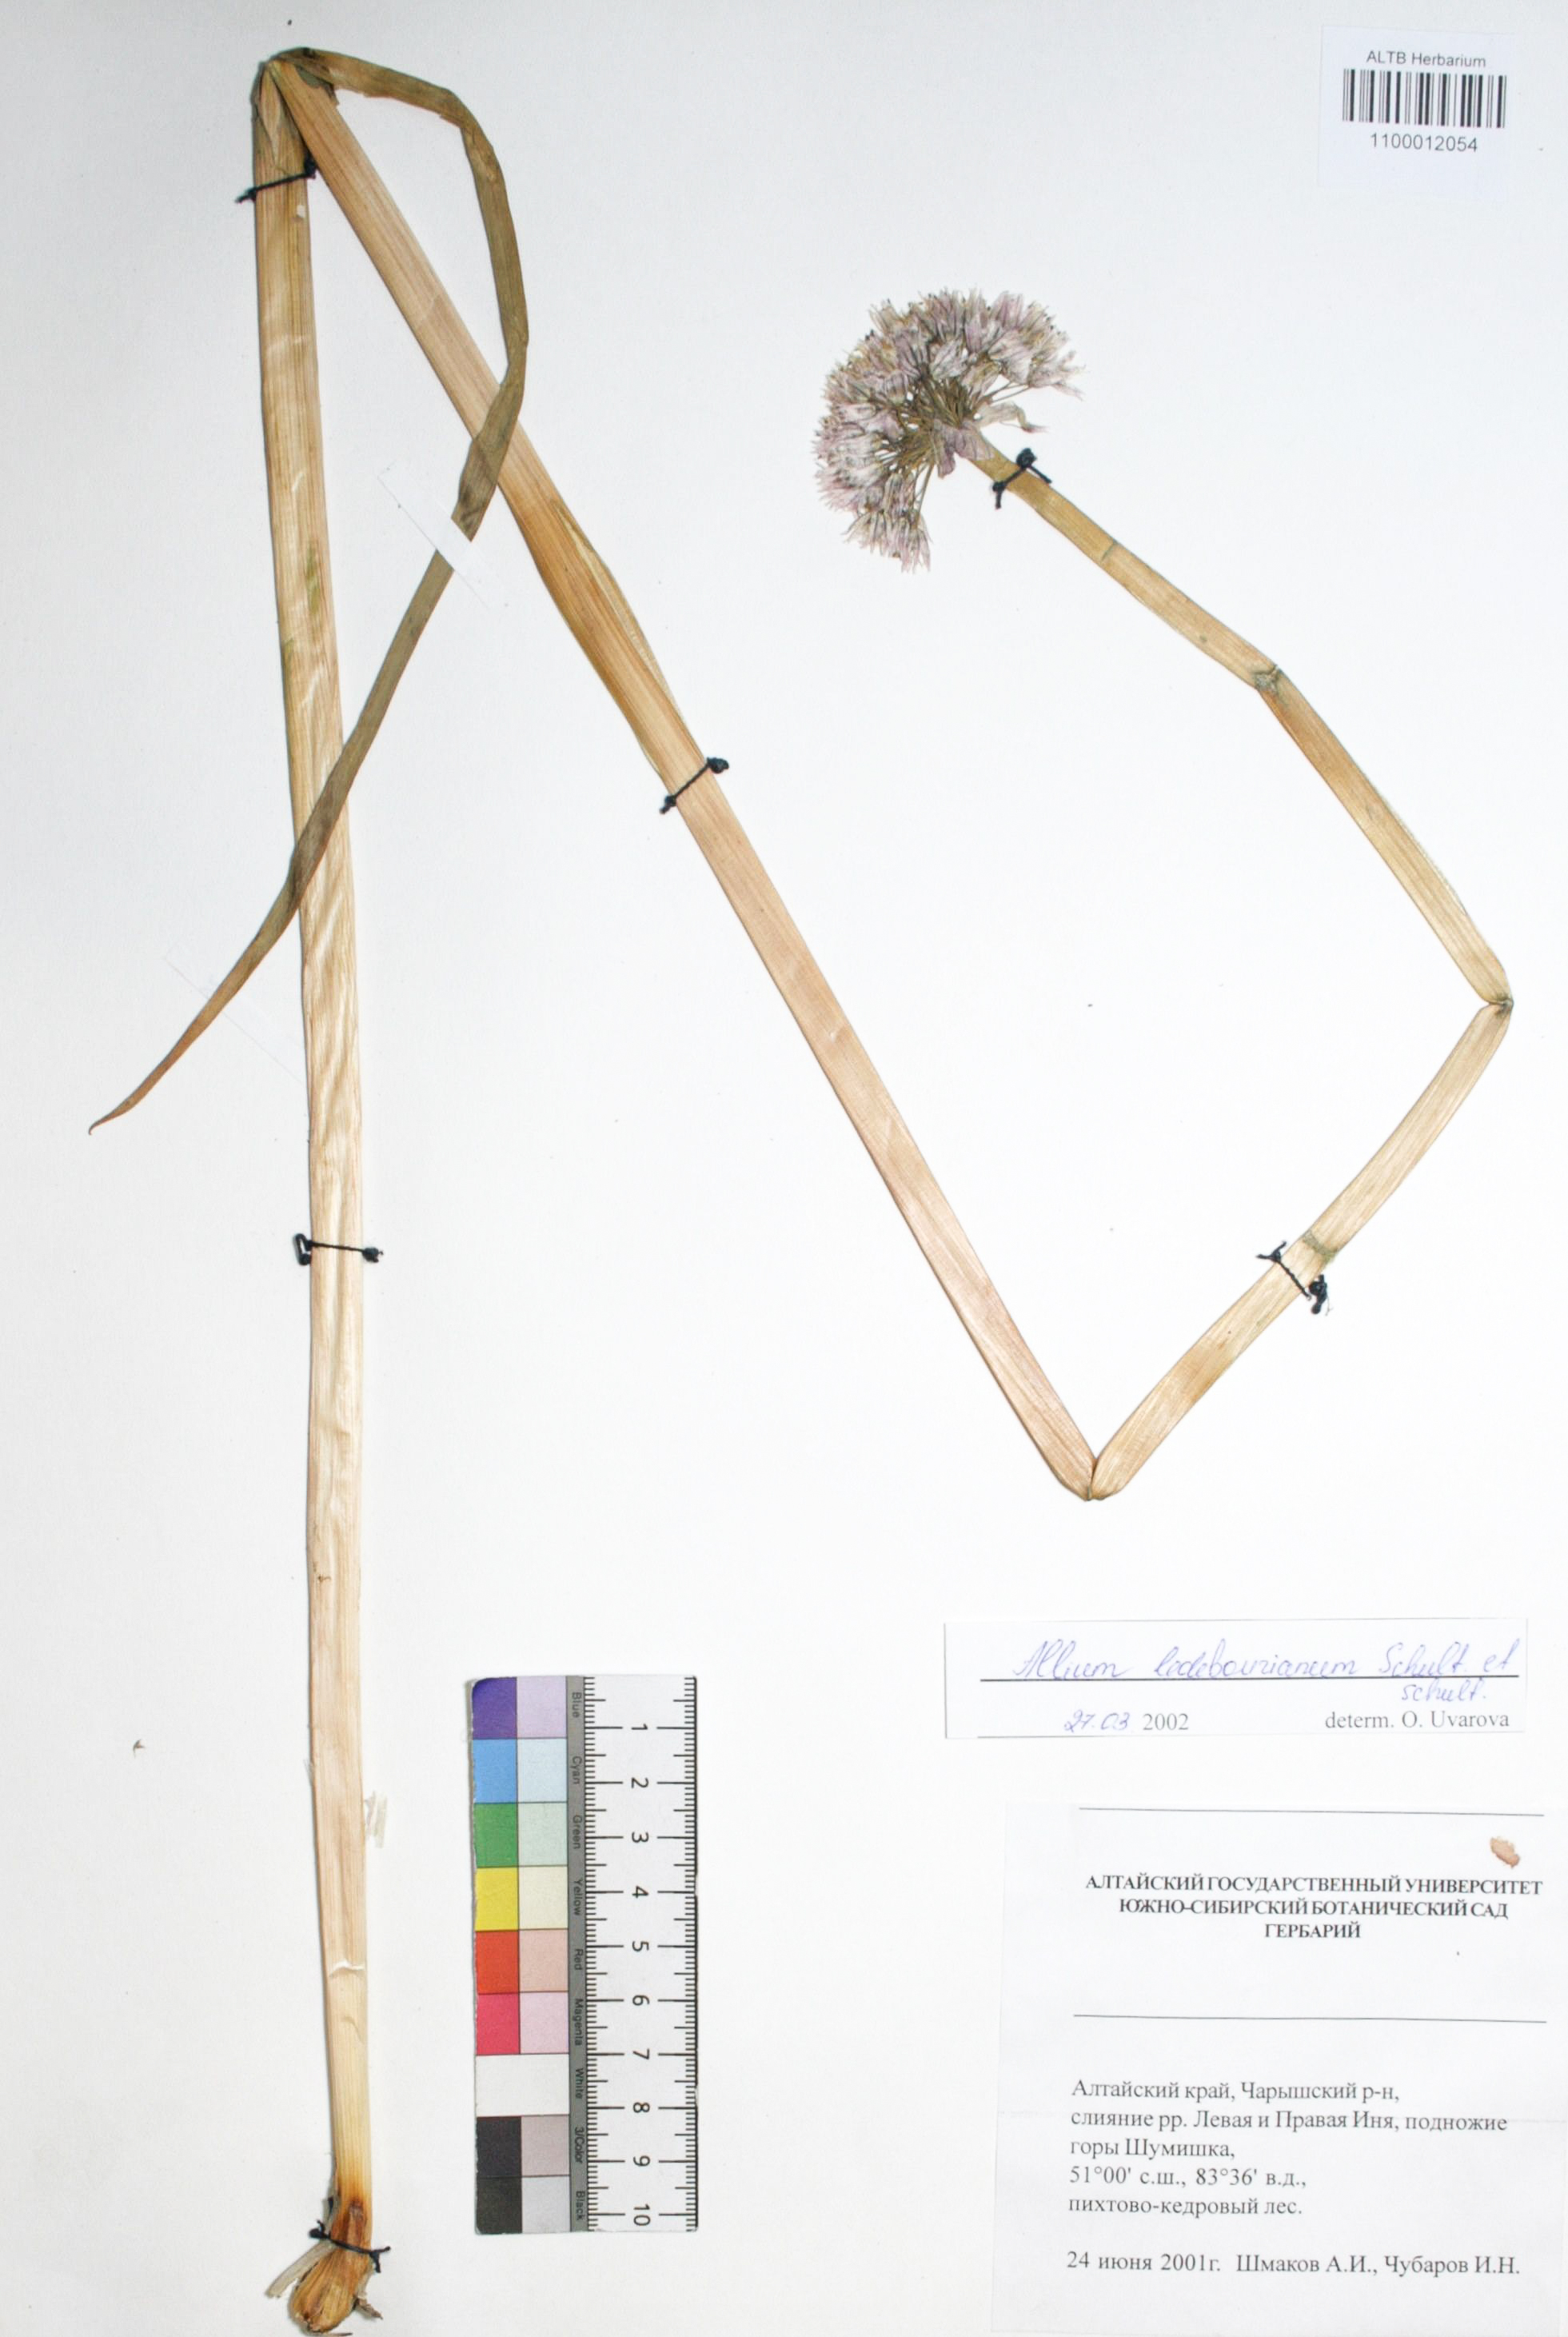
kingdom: Plantae
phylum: Tracheophyta
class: Liliopsida
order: Asparagales
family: Amaryllidaceae
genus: Allium
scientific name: Allium ledebourianum
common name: Ledebour chive
